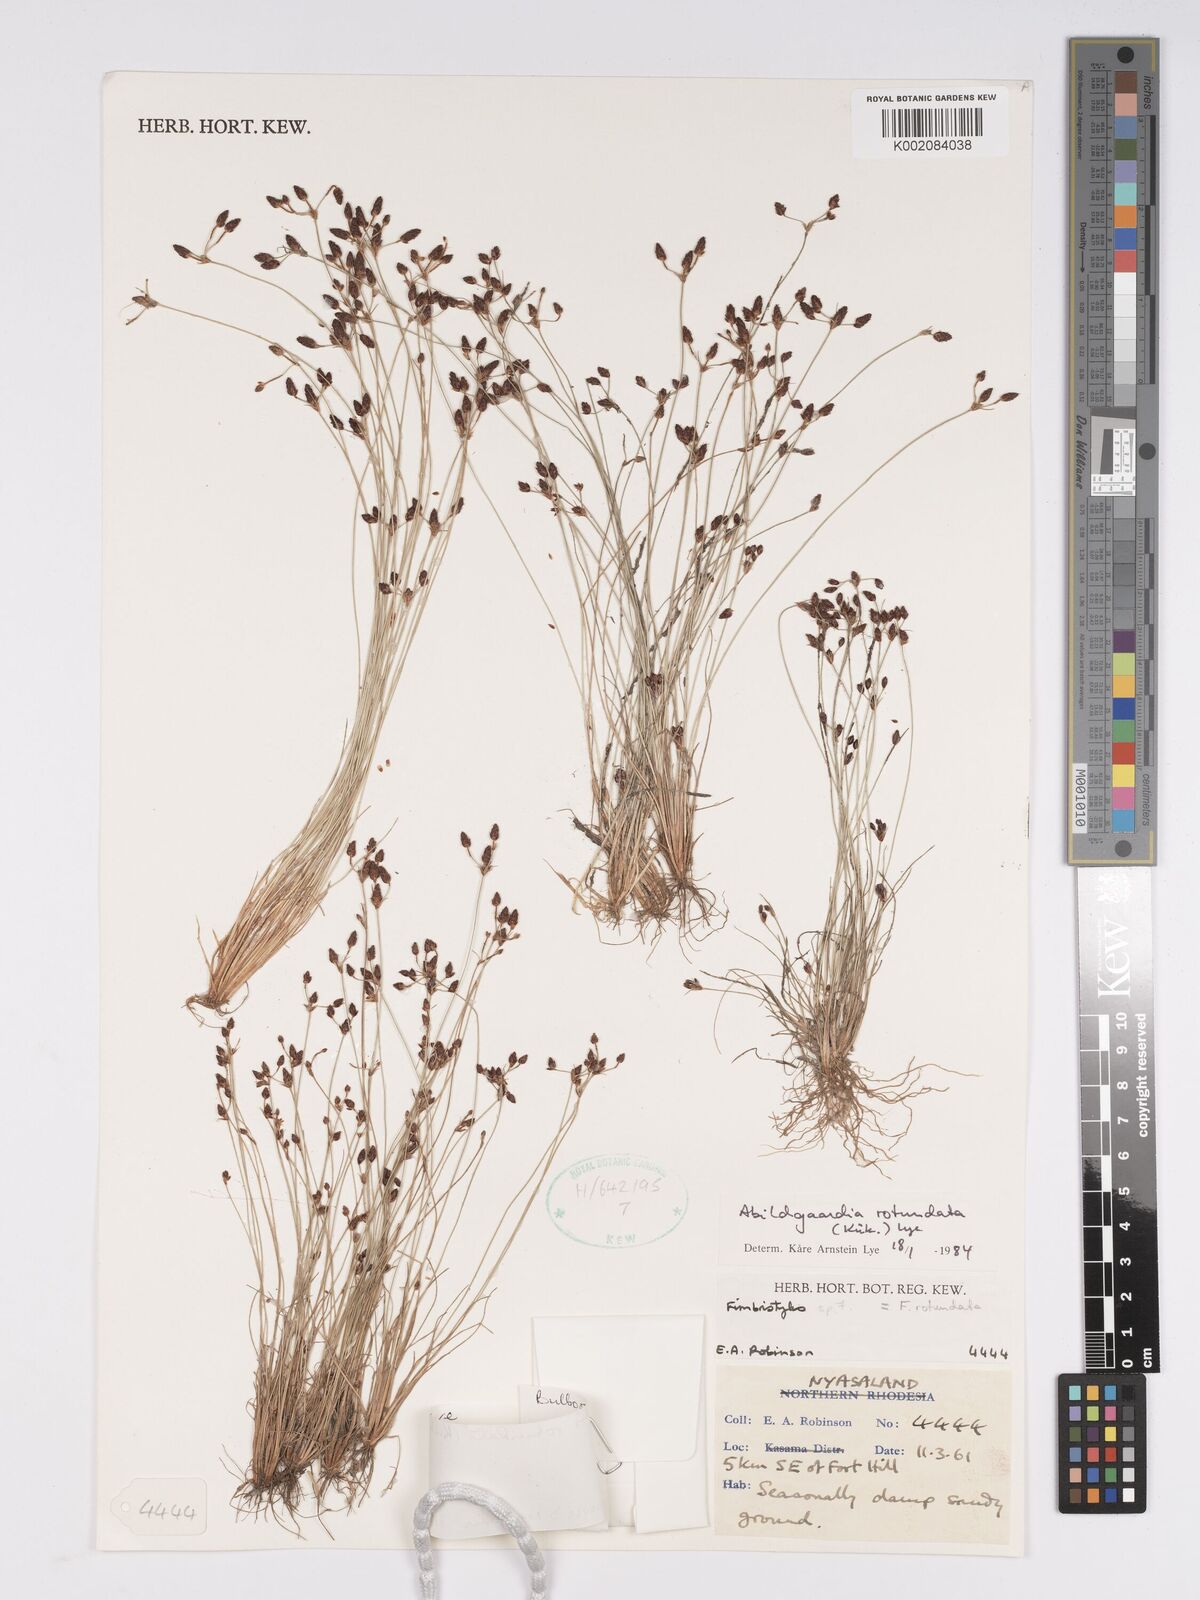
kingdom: Plantae
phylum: Tracheophyta
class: Liliopsida
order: Poales
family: Cyperaceae
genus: Bulbostylis
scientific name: Bulbostylis rotundata
